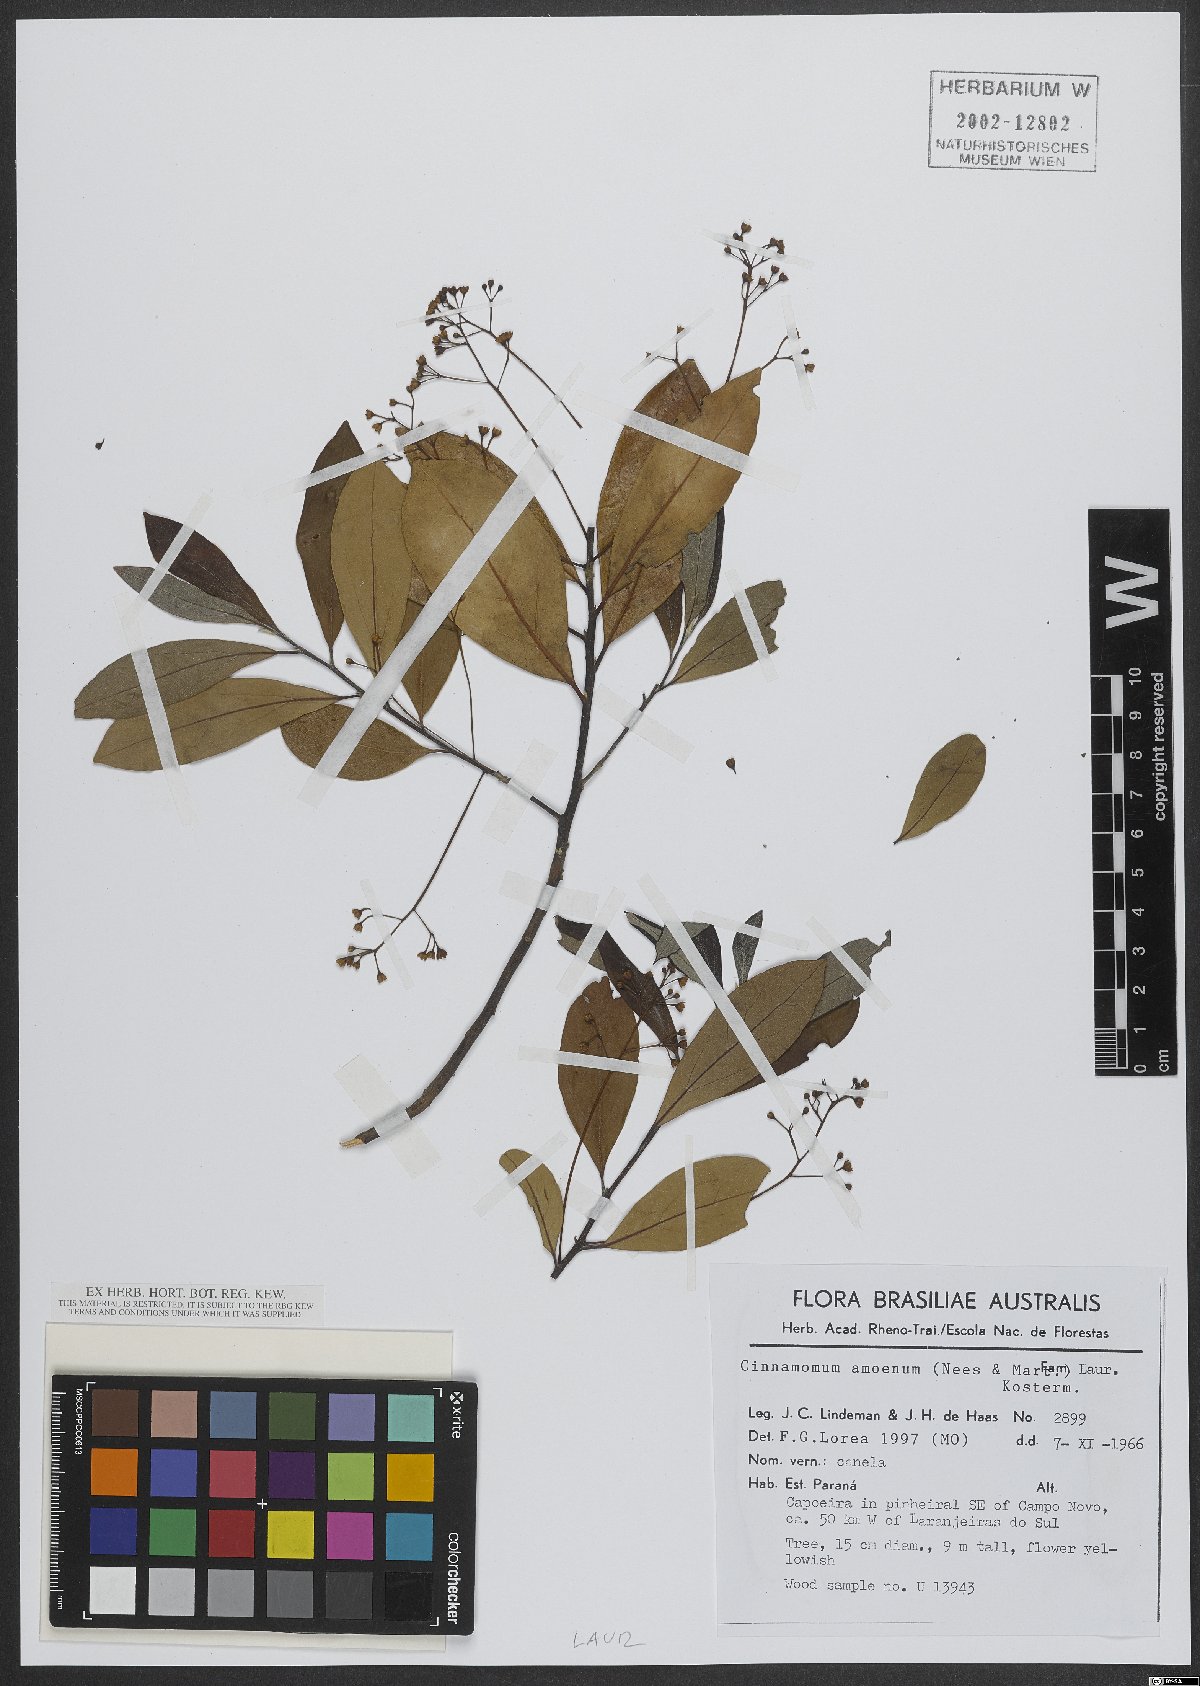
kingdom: Plantae
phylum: Tracheophyta
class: Magnoliopsida
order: Laurales
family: Lauraceae
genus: Aiouea
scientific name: Aiouea amoena
